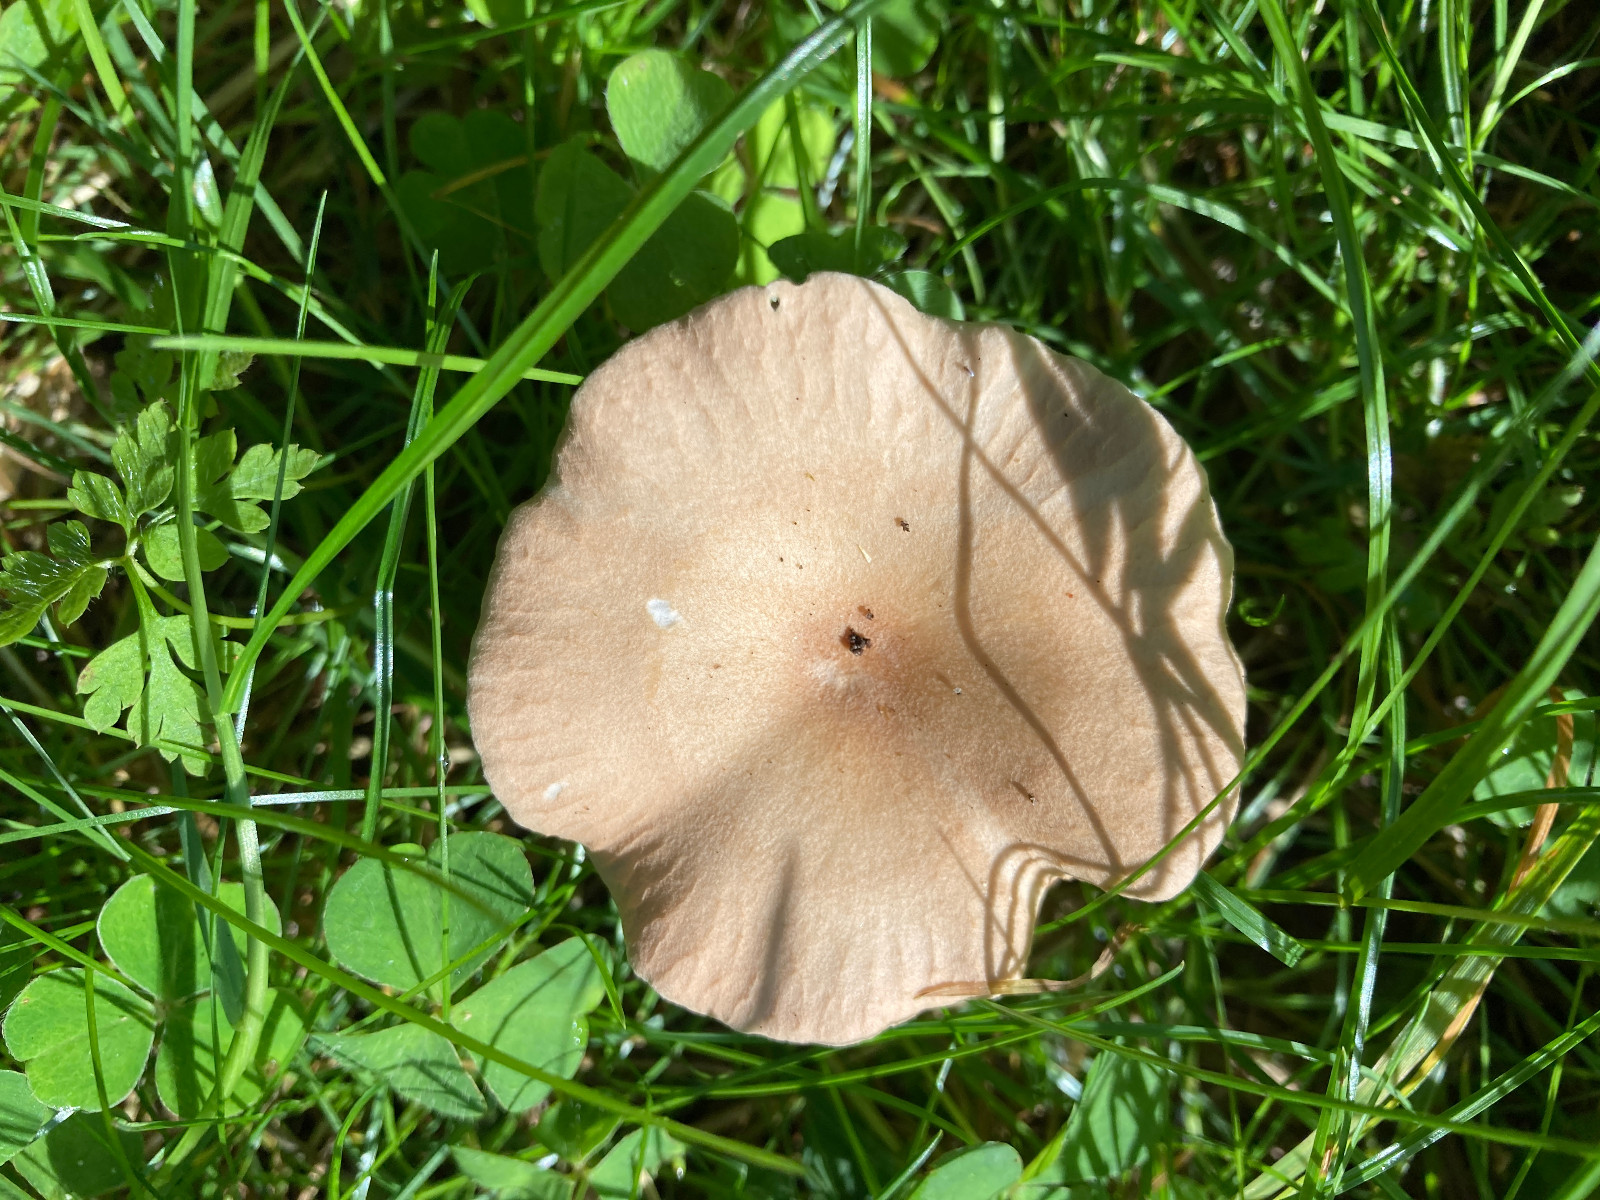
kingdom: Fungi
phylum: Basidiomycota
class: Agaricomycetes
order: Agaricales
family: Tricholomataceae
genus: Infundibulicybe
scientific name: Infundibulicybe gibba
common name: almindelig tragthat
